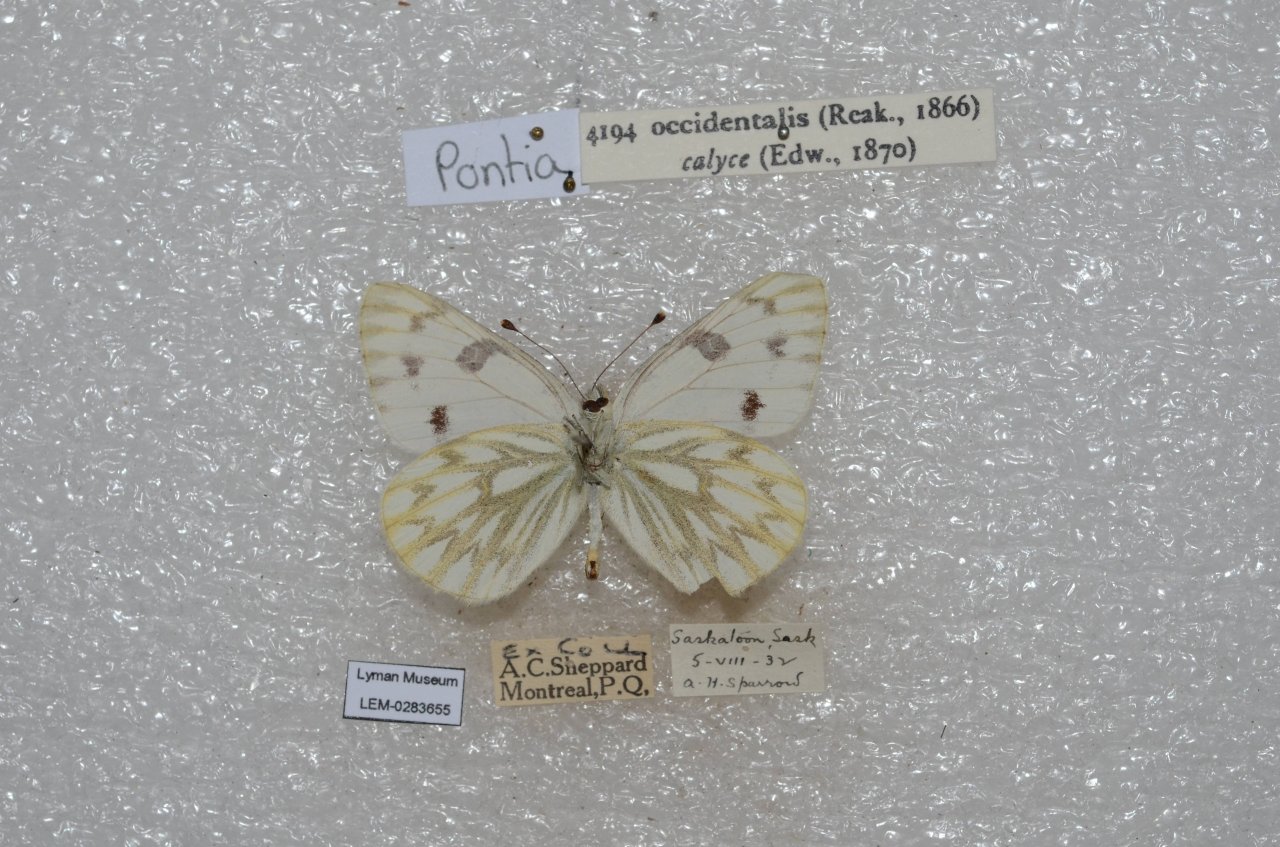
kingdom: Animalia
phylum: Arthropoda
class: Insecta
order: Lepidoptera
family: Pieridae
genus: Pontia
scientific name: Pontia occidentalis
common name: Western White
